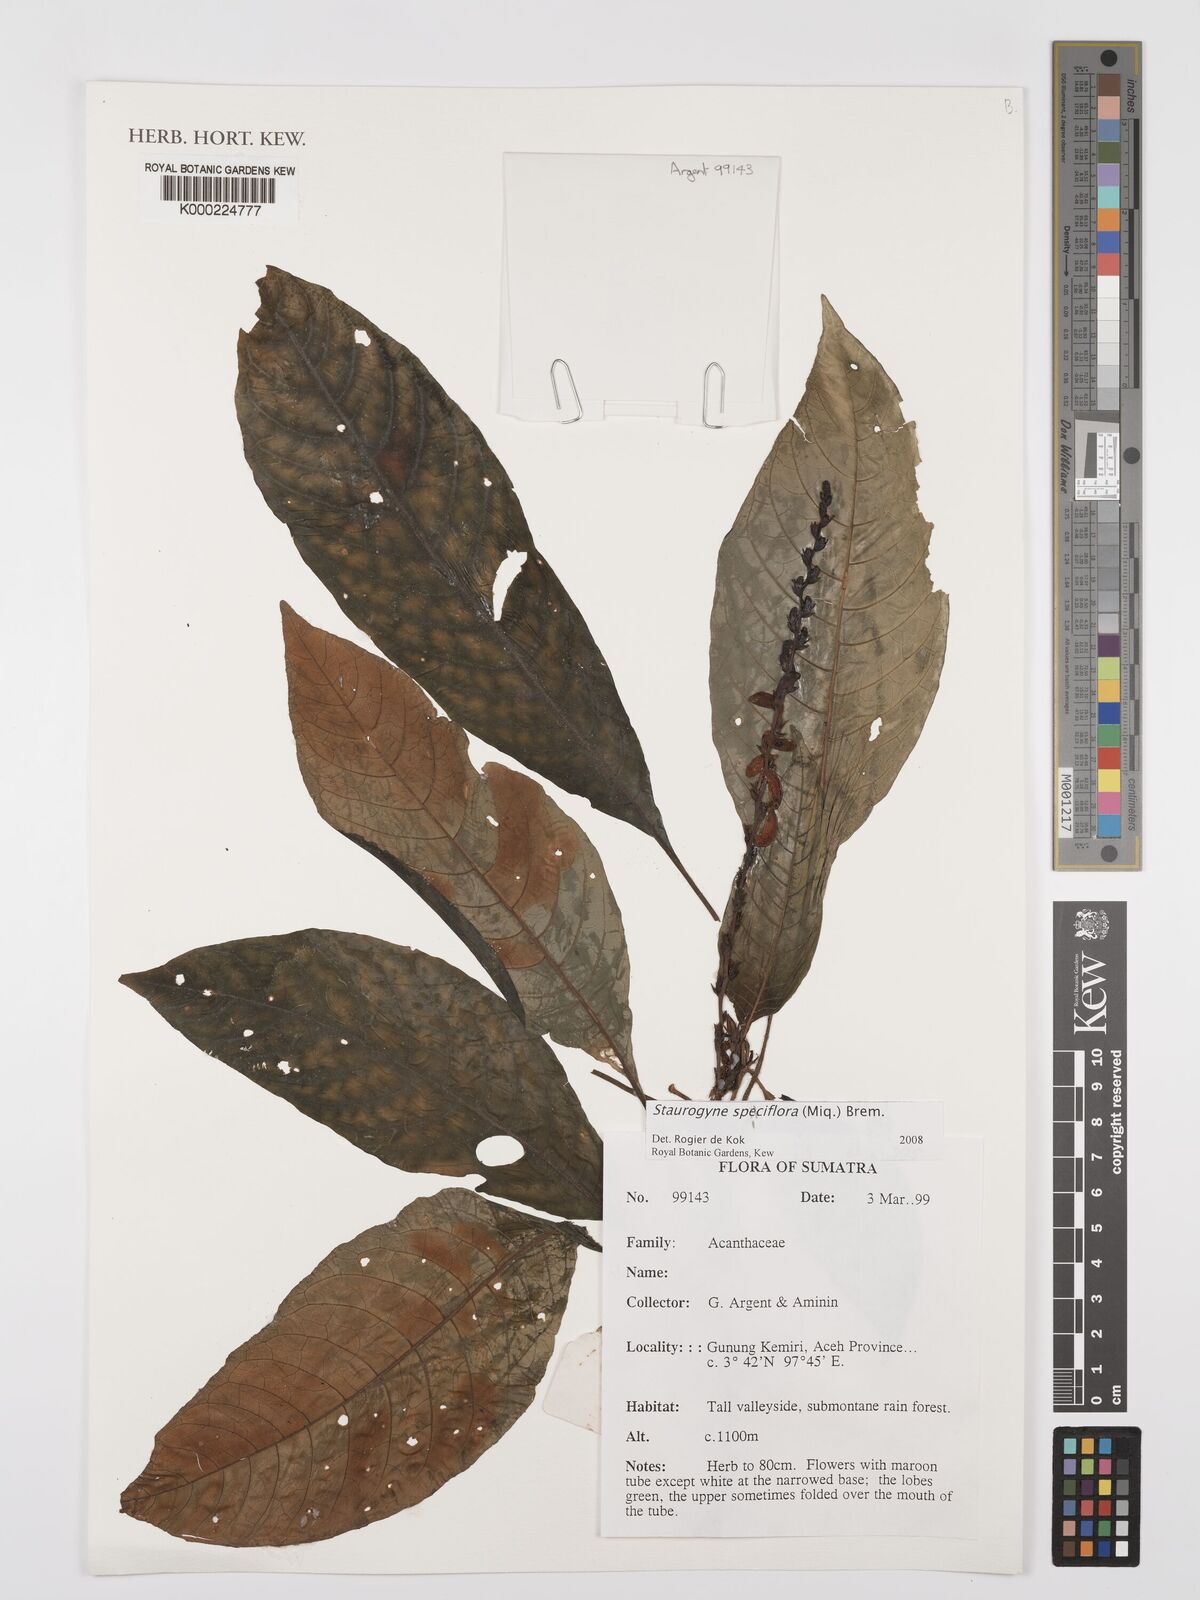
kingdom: Plantae
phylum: Tracheophyta
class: Magnoliopsida
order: Lamiales
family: Acanthaceae
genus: Staurogyne
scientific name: Staurogyne
